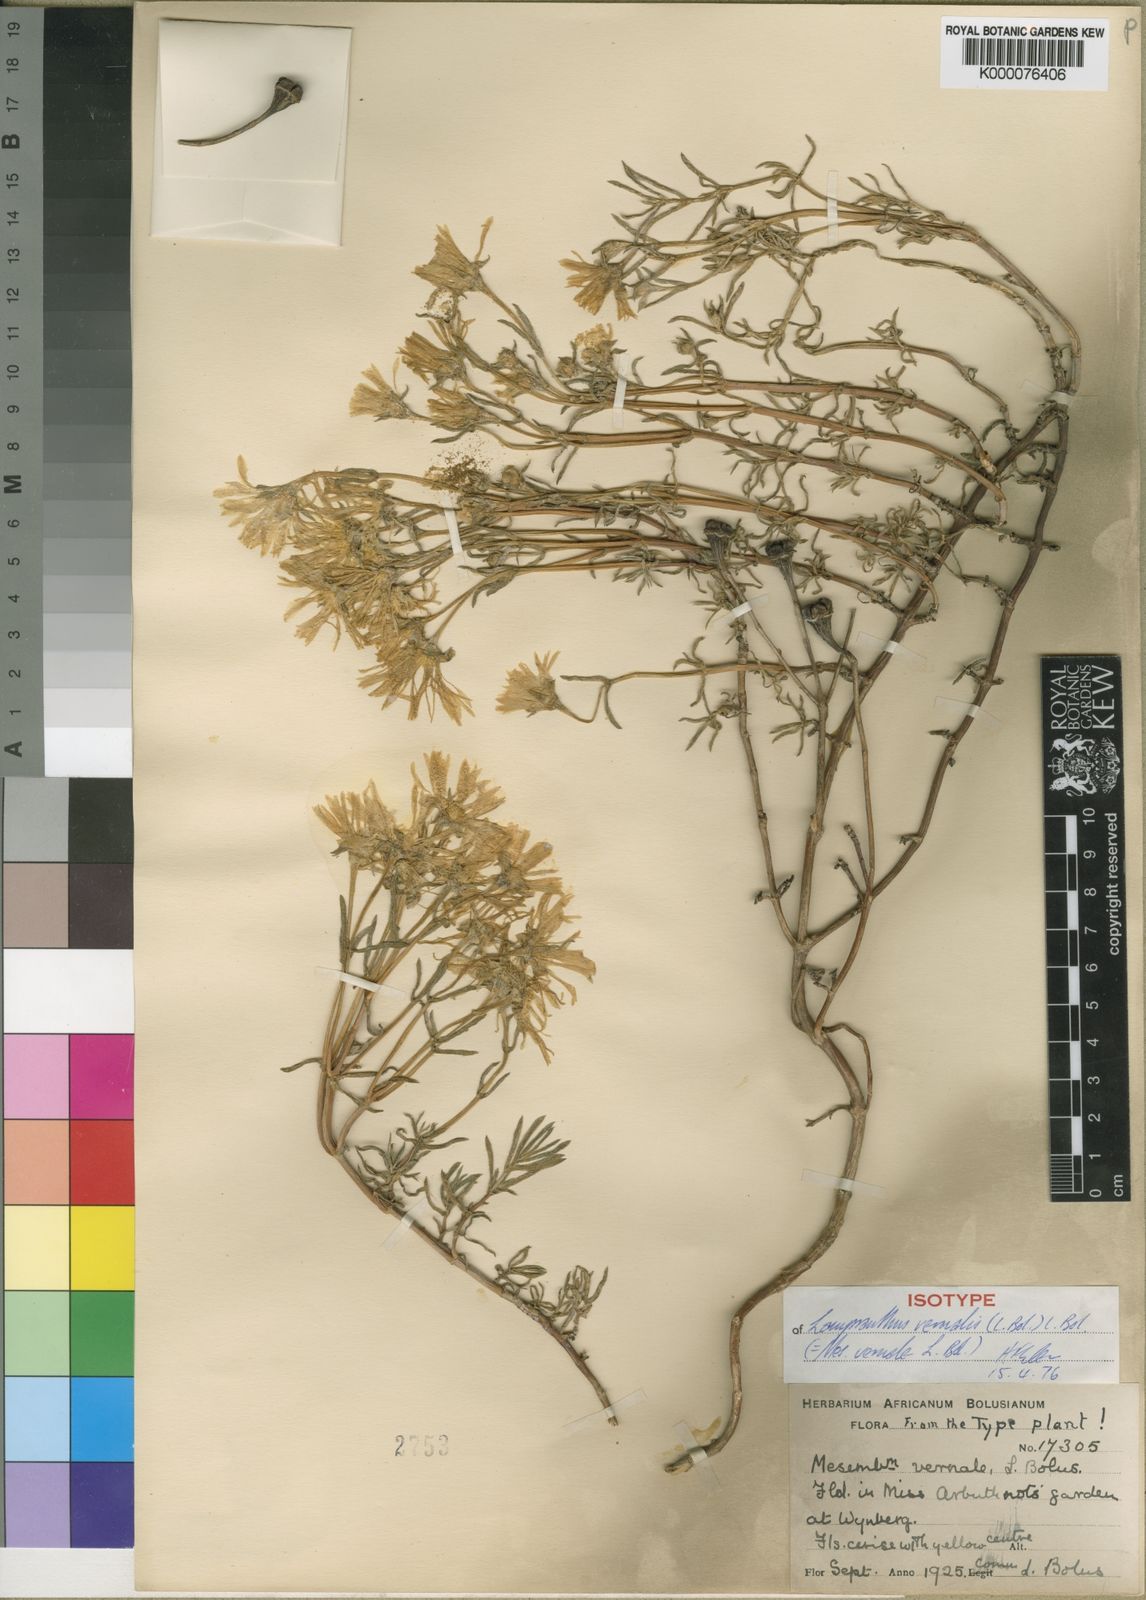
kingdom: Plantae
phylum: Tracheophyta
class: Magnoliopsida
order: Caryophyllales
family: Aizoaceae
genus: Lampranthus
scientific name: Lampranthus vernalis
